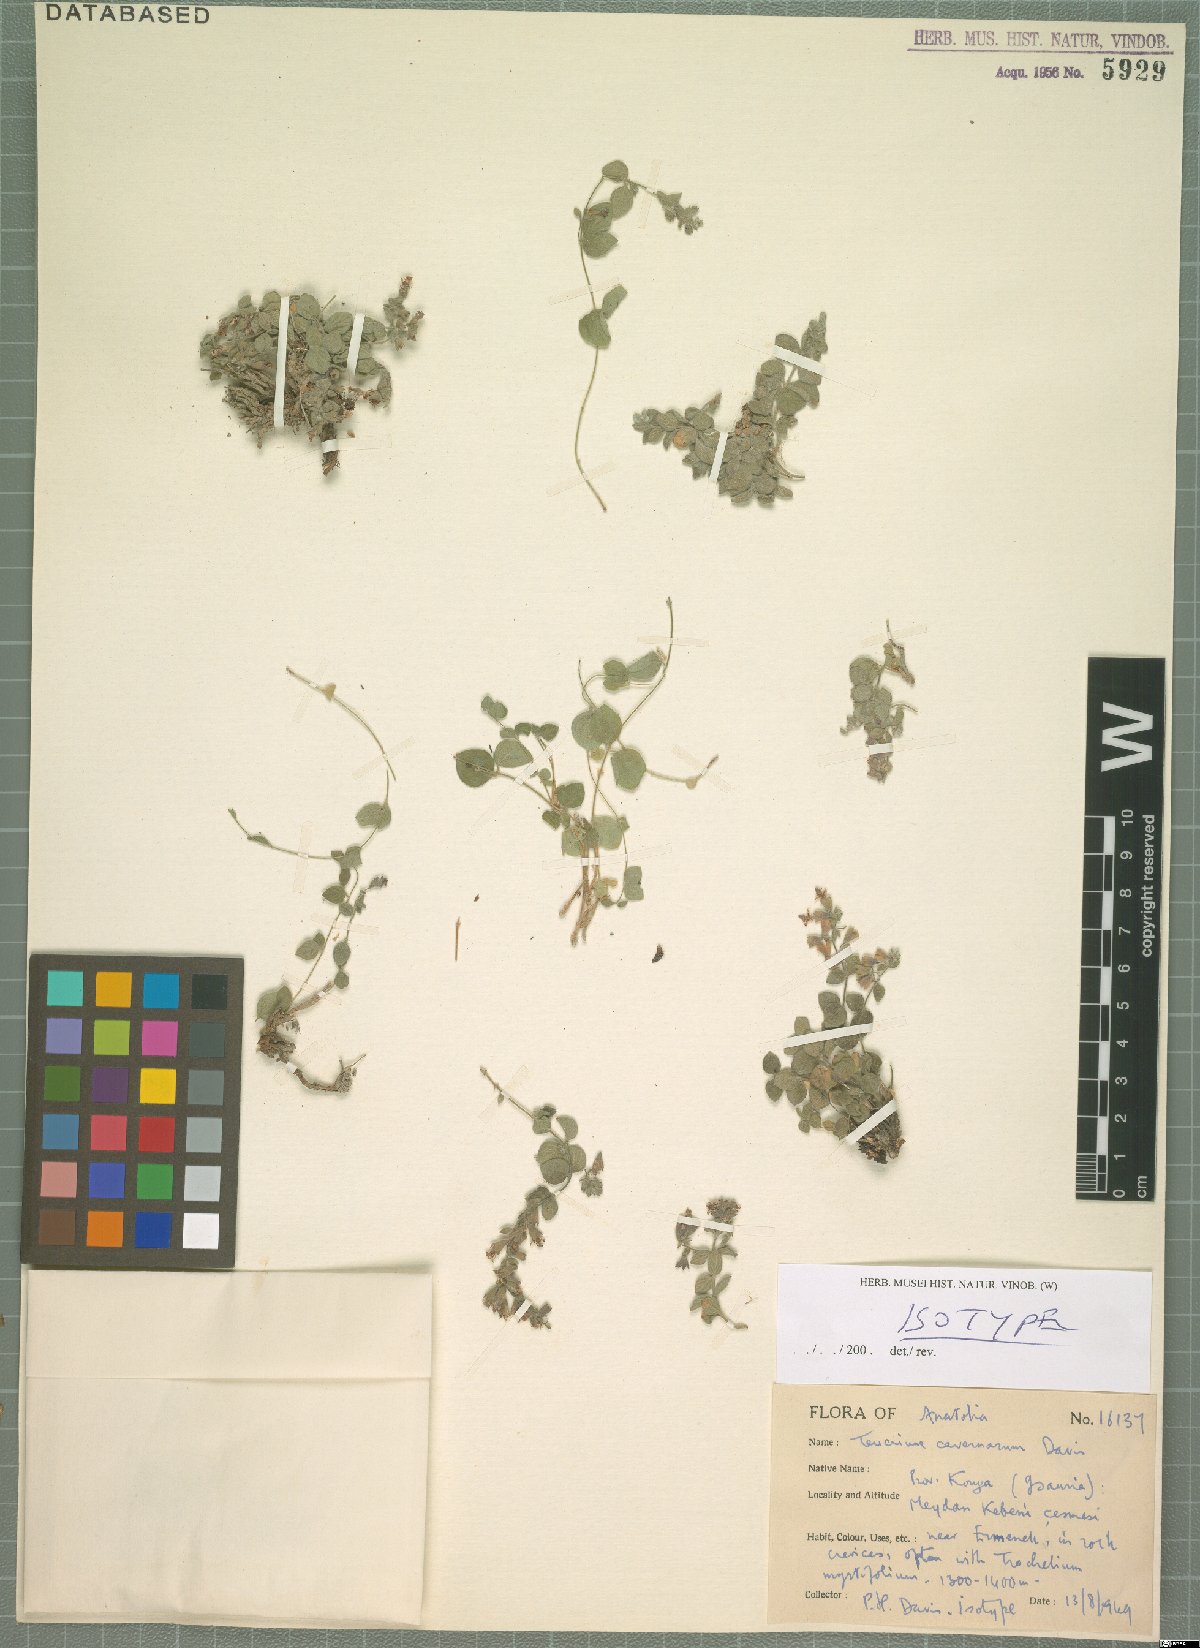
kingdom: Plantae
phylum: Tracheophyta
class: Magnoliopsida
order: Lamiales
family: Lamiaceae
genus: Teucrium
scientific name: Teucrium cavernarum
